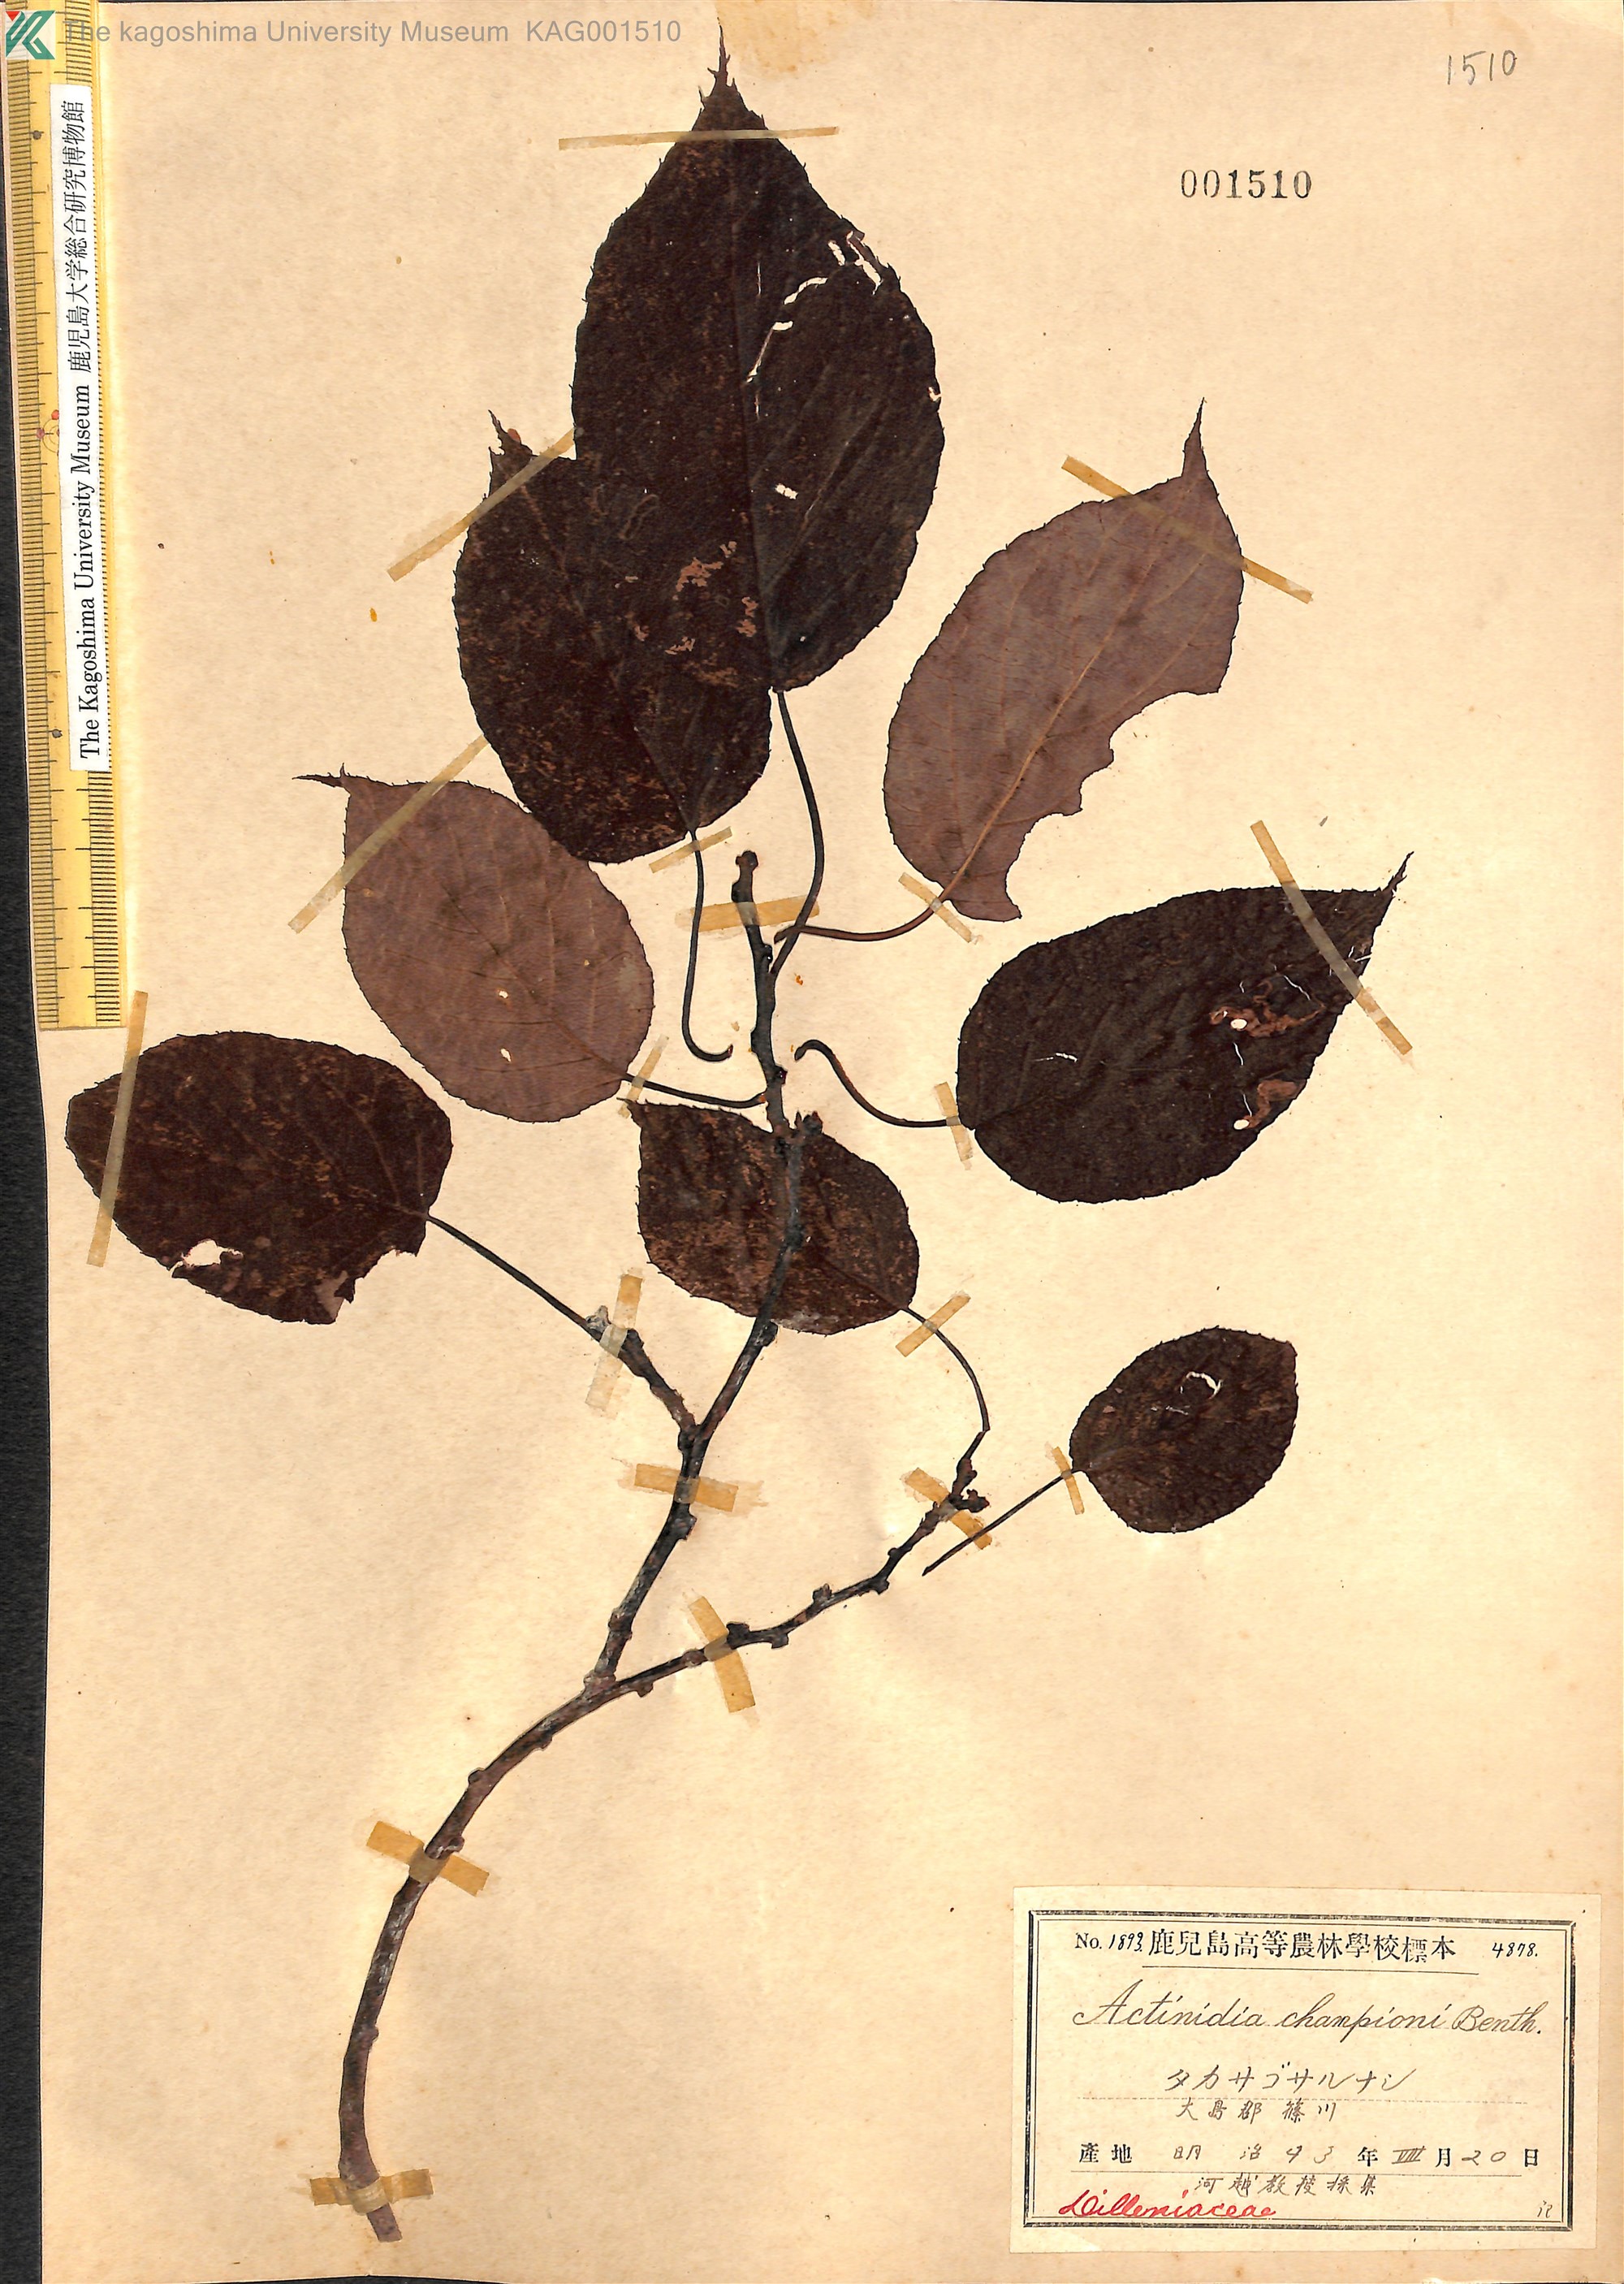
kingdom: Plantae
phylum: Tracheophyta
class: Magnoliopsida
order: Ericales
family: Actinidiaceae
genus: Actinidia
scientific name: Actinidia rufa
